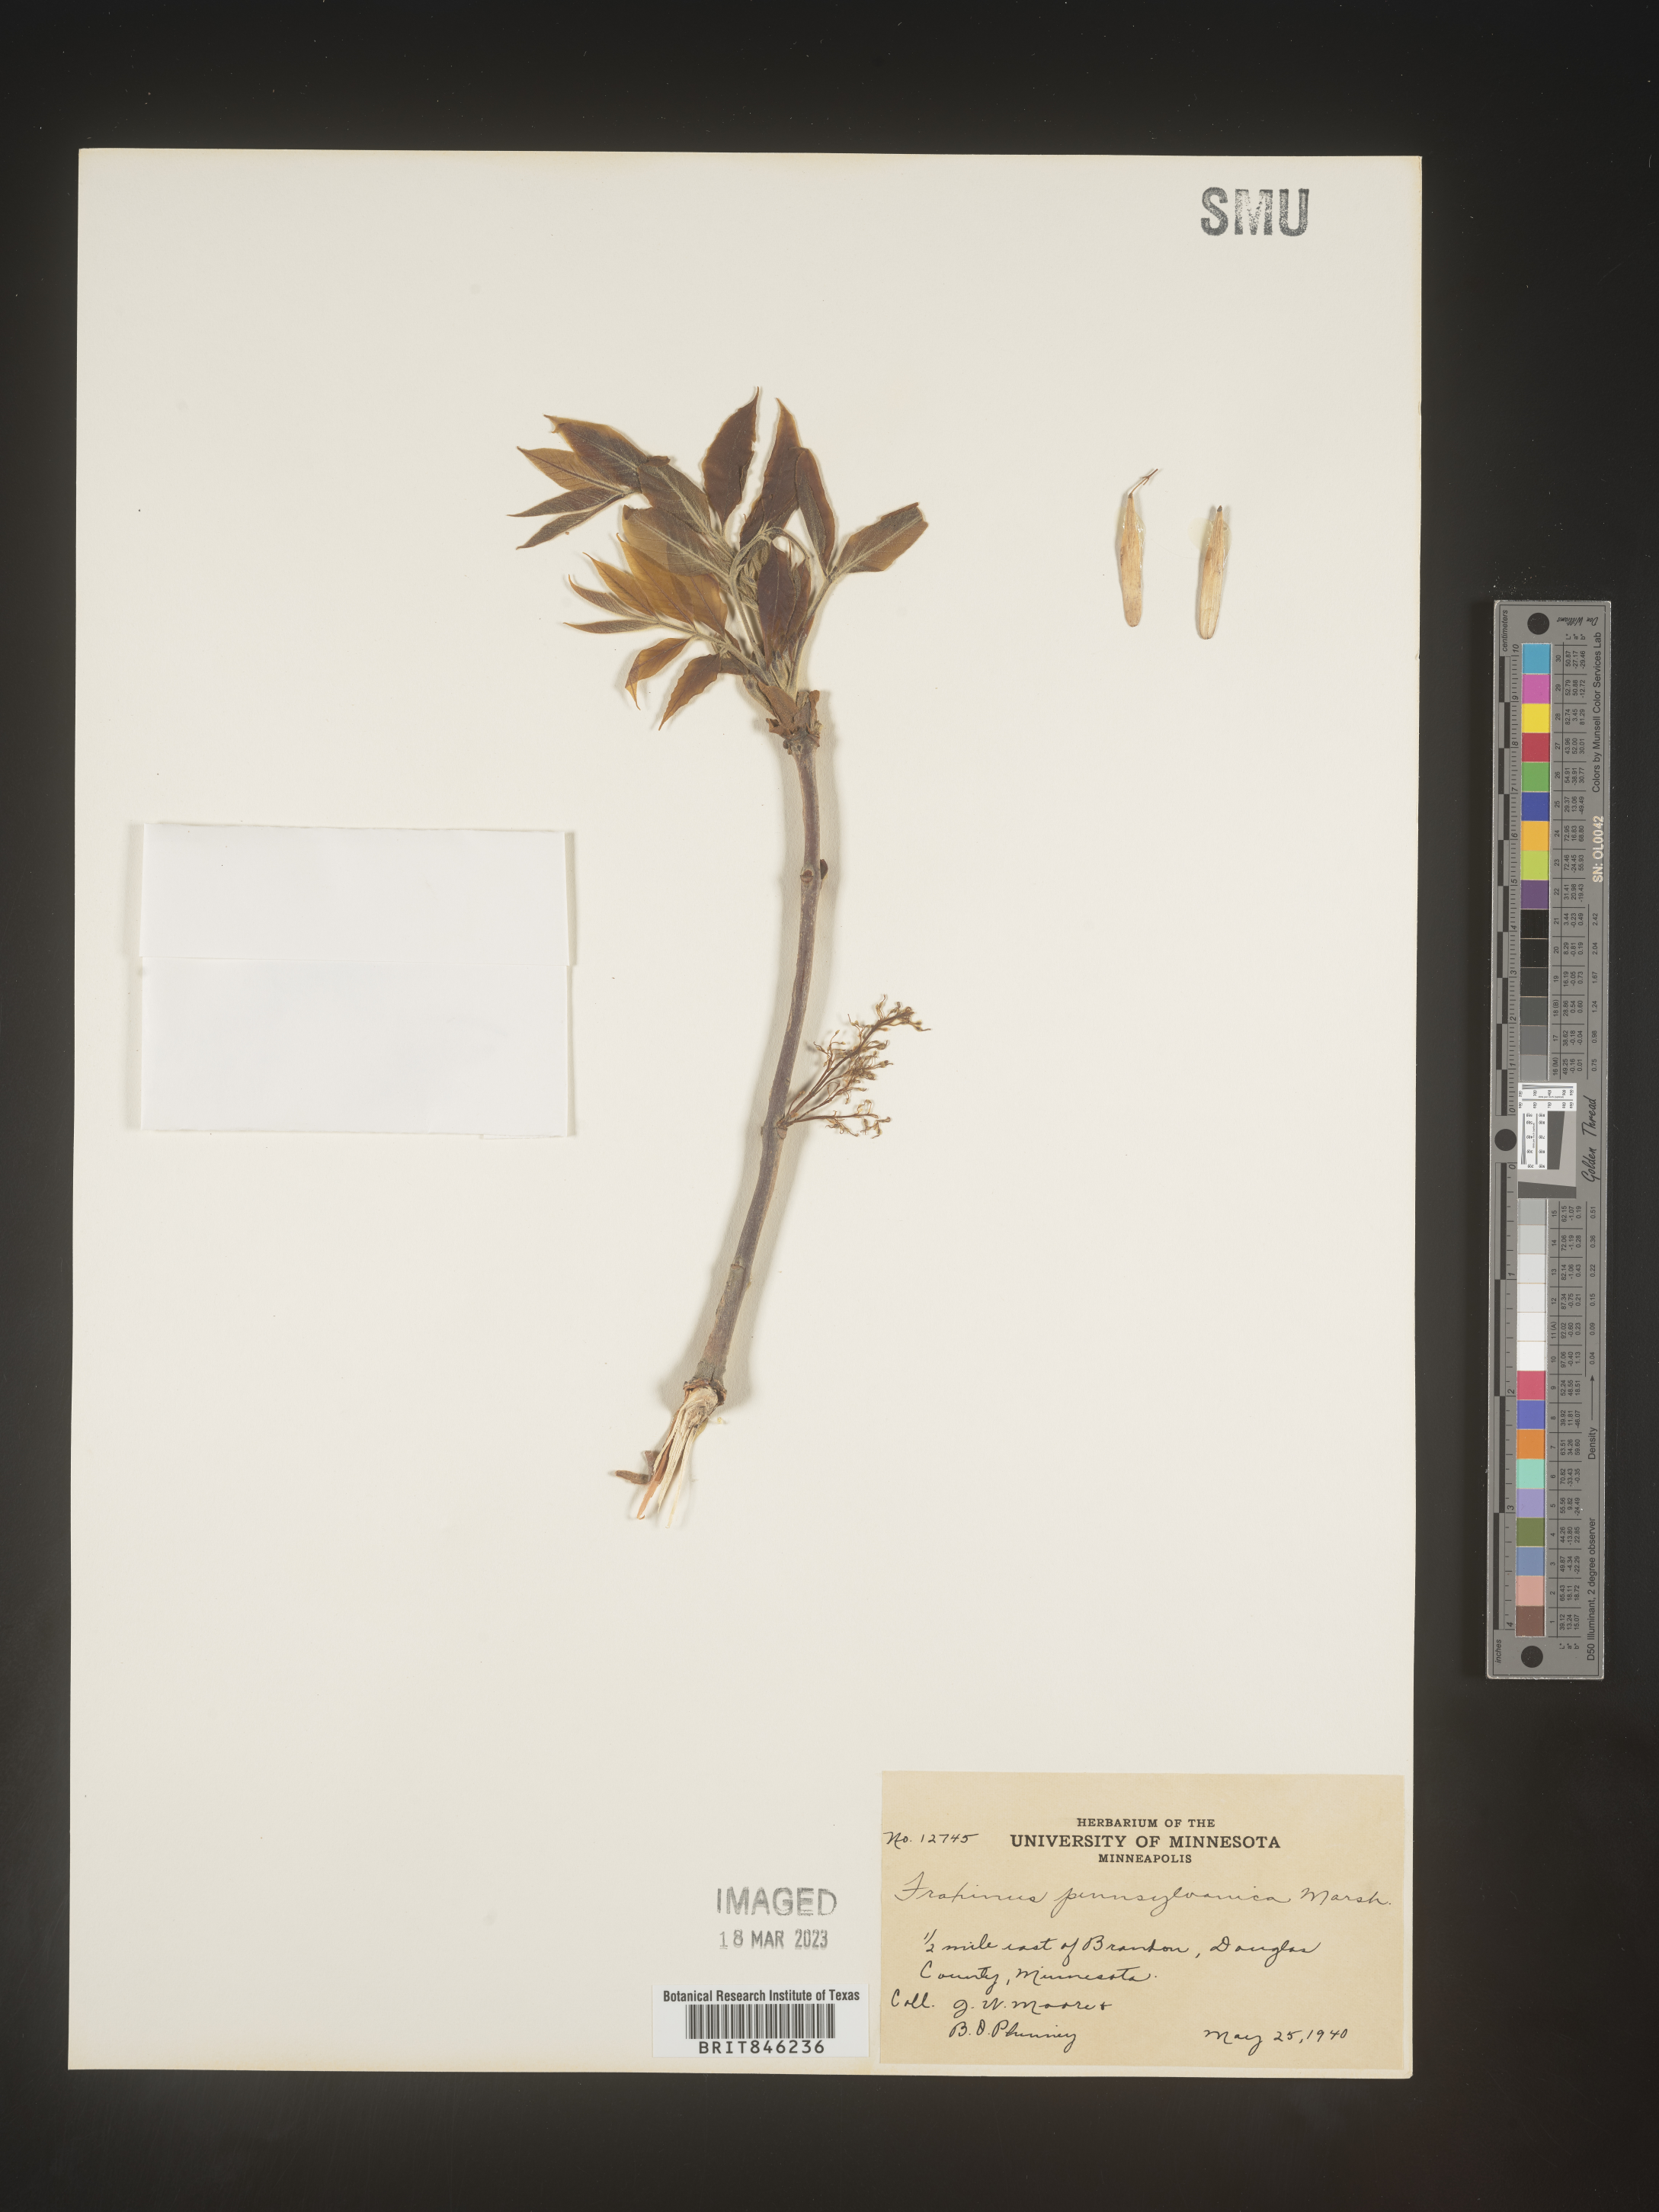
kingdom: Plantae
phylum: Tracheophyta
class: Magnoliopsida
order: Lamiales
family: Oleaceae
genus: Fraxinus
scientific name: Fraxinus pennsylvanica
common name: Green ash
